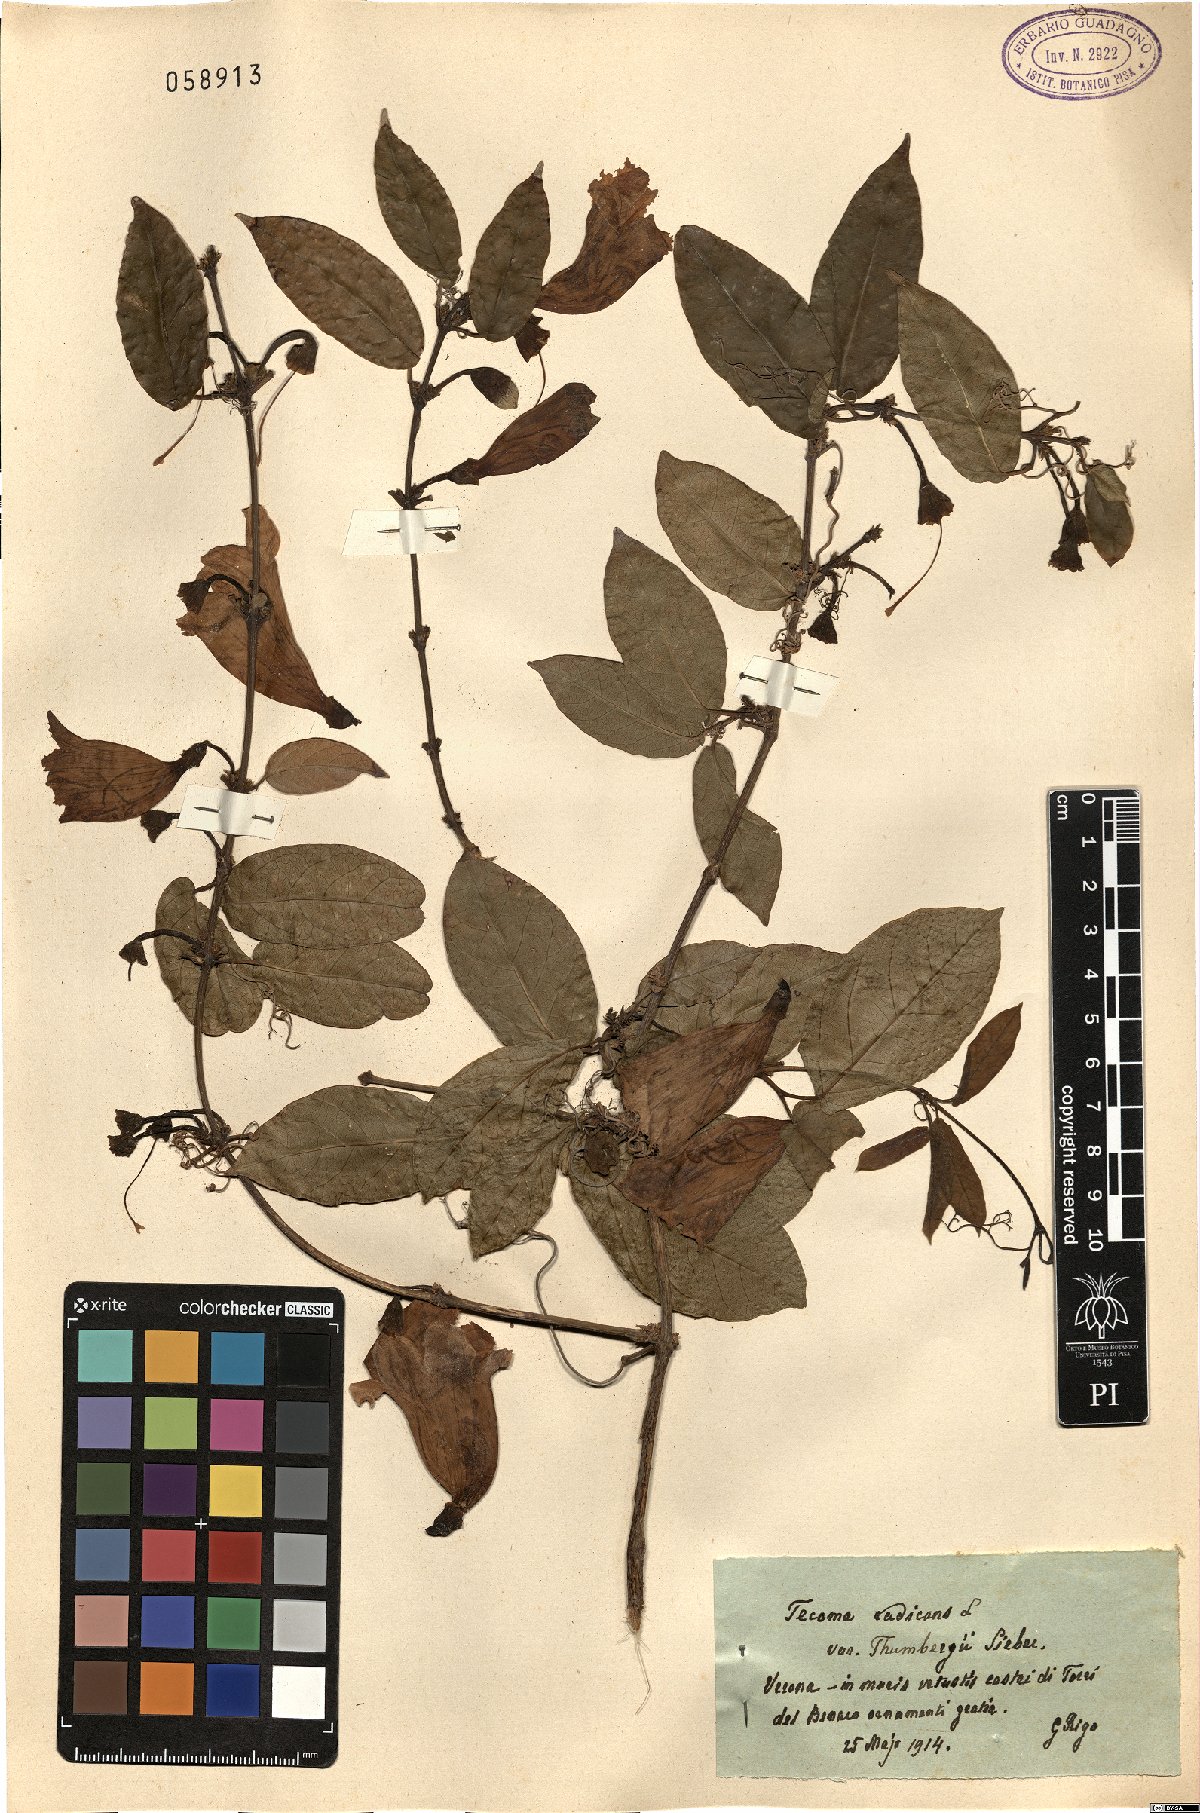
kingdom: Plantae
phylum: Tracheophyta
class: Magnoliopsida
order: Lamiales
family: Bignoniaceae
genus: Campsis
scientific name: Campsis grandiflora
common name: Chinese trumpet-creeper
